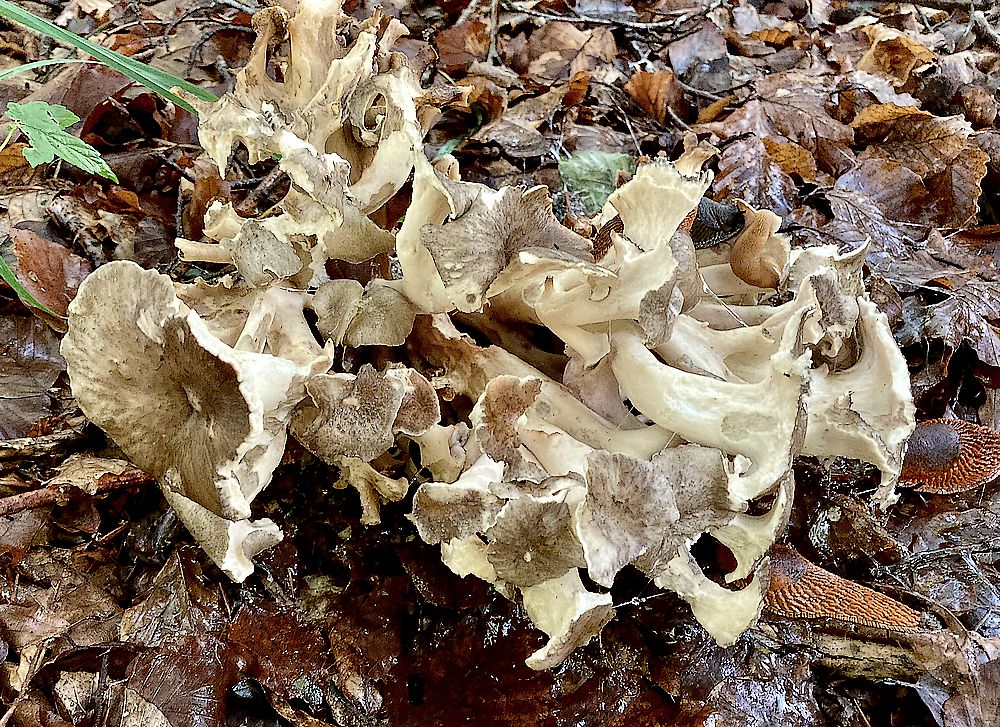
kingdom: Fungi
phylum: Basidiomycota
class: Agaricomycetes
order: Polyporales
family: Polyporaceae
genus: Polyporus
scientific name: Polyporus umbellatus
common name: skærmformet stilkporesvamp
